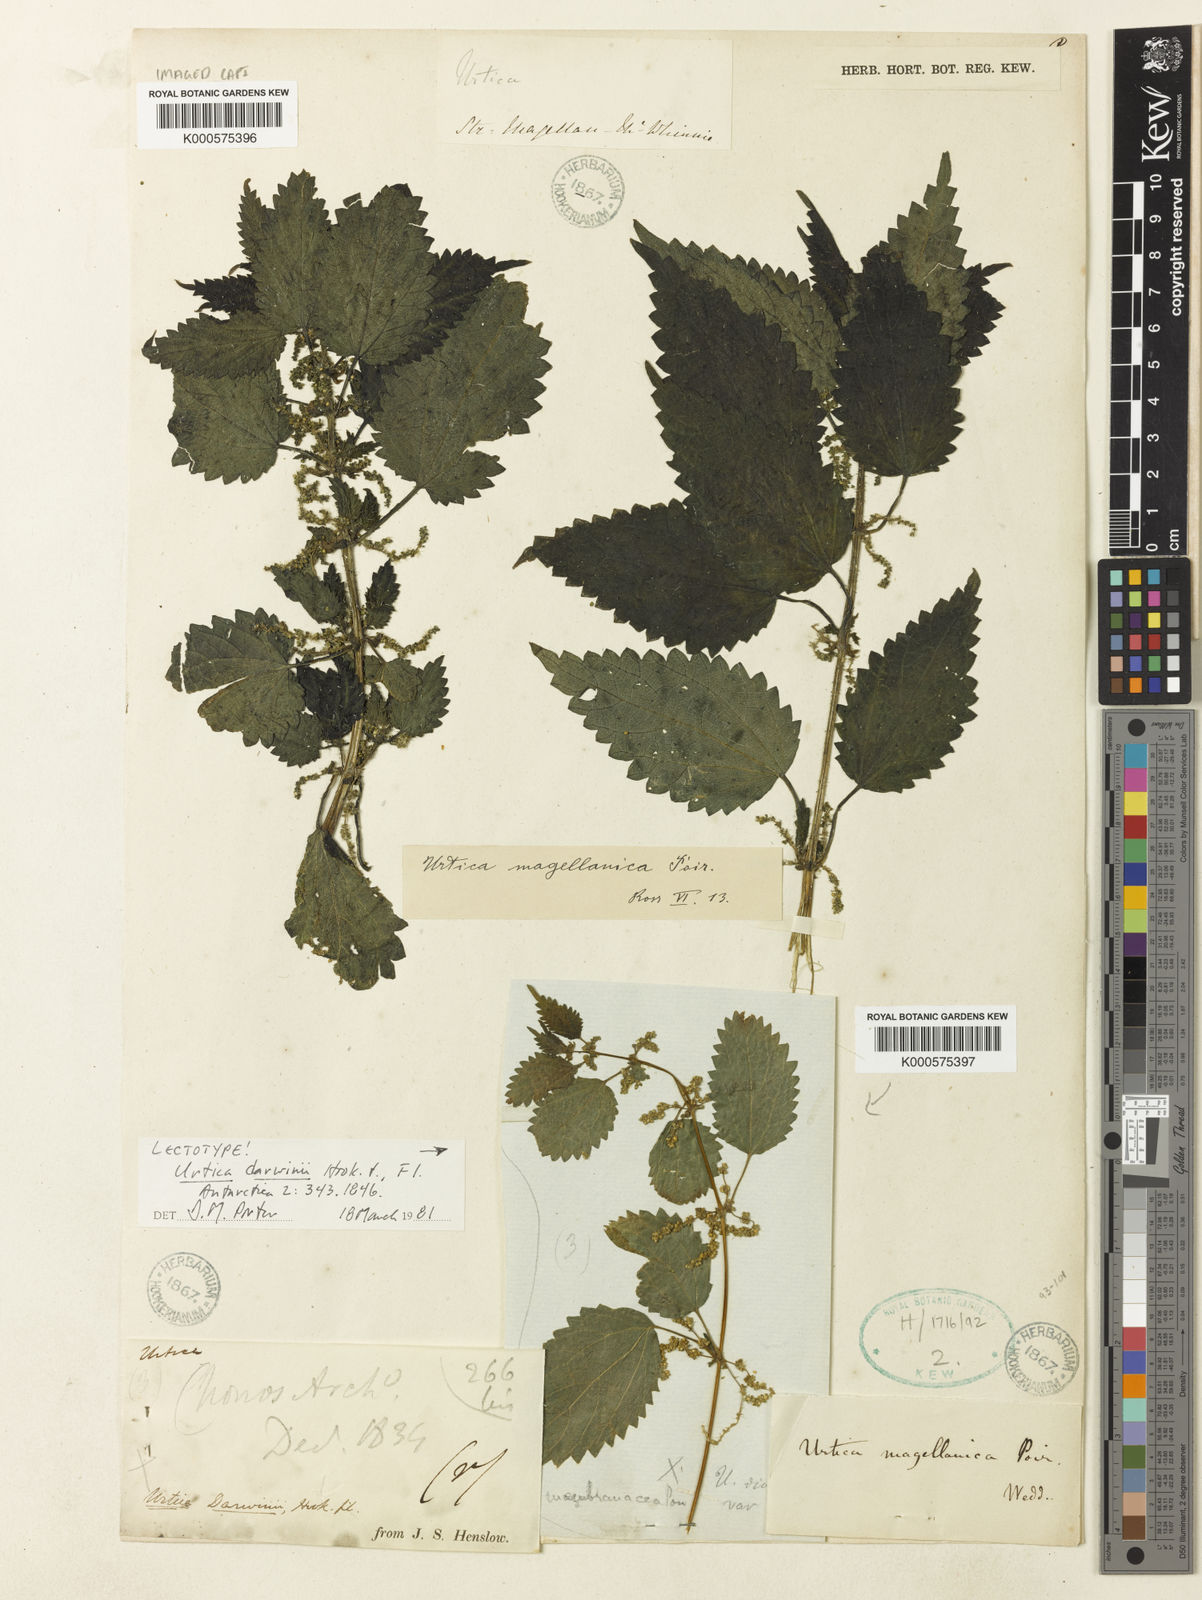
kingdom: Plantae
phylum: Tracheophyta
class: Magnoliopsida
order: Rosales
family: Urticaceae
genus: Urtica
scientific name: Urtica magellanica
